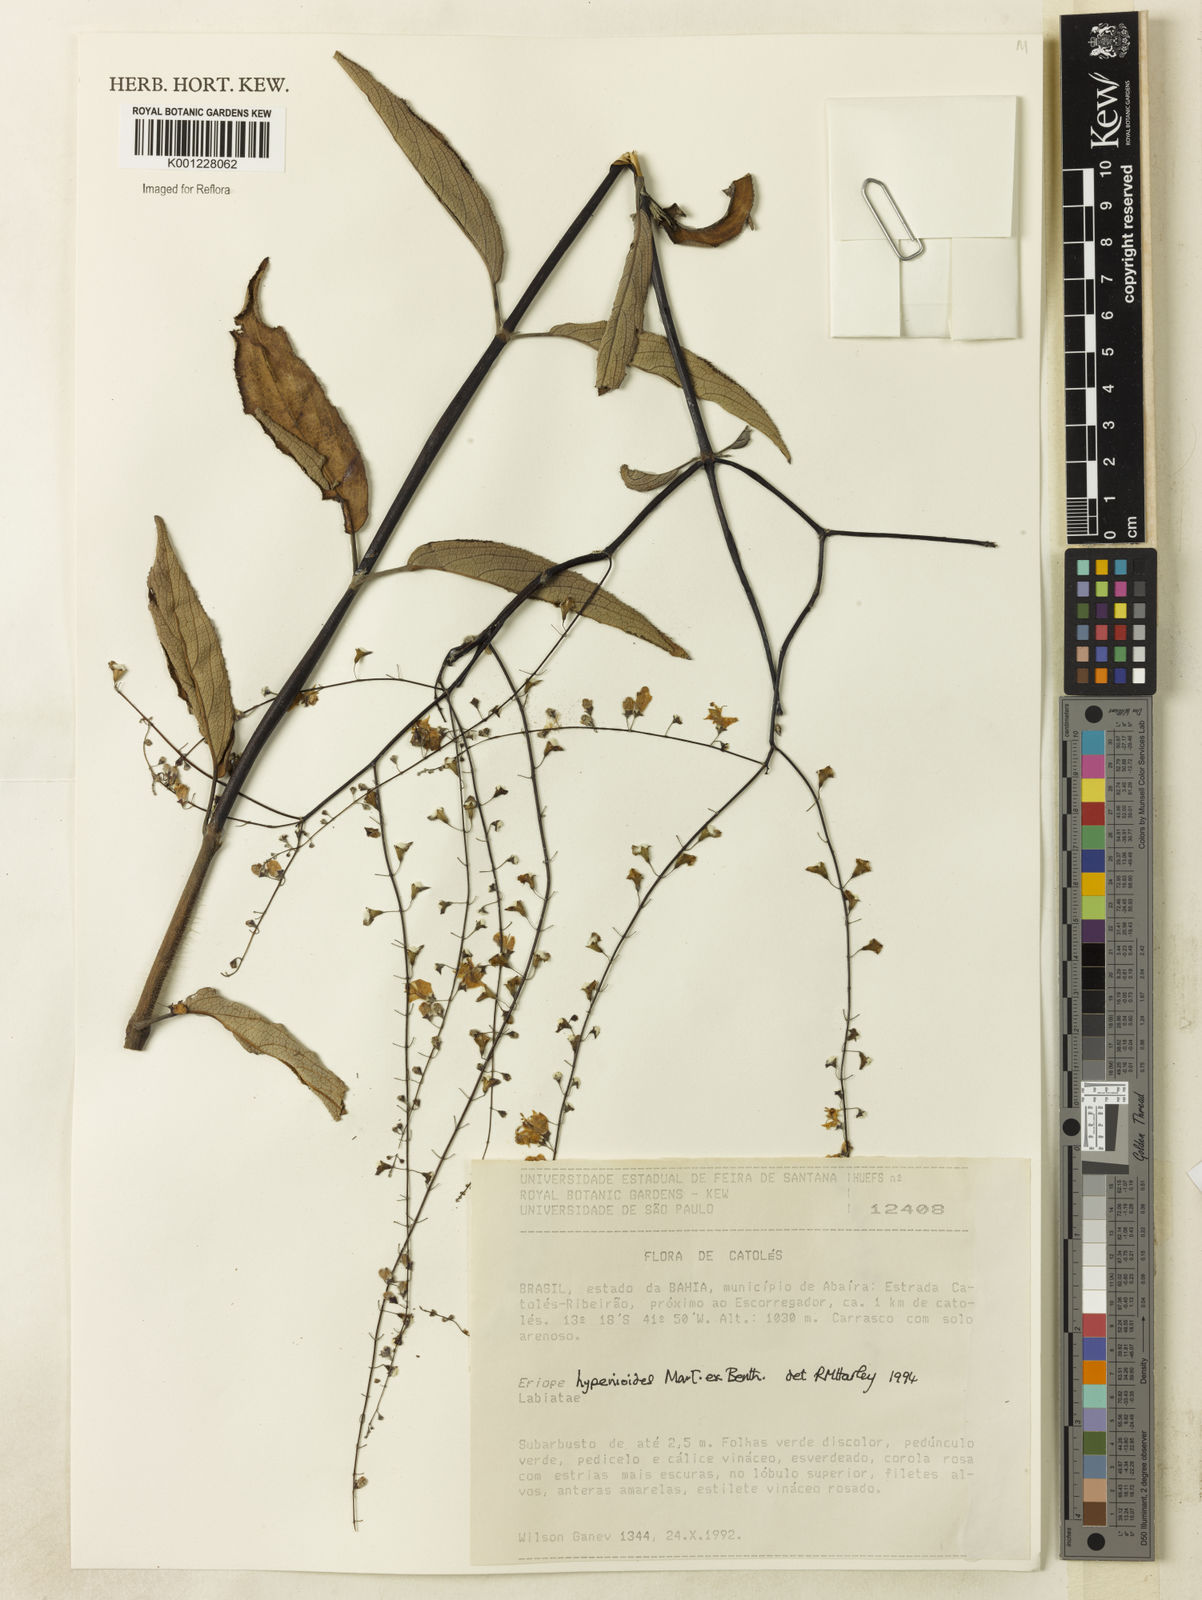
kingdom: Plantae
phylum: Tracheophyta
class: Magnoliopsida
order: Lamiales
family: Lamiaceae
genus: Eriope
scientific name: Eriope hypenioides
